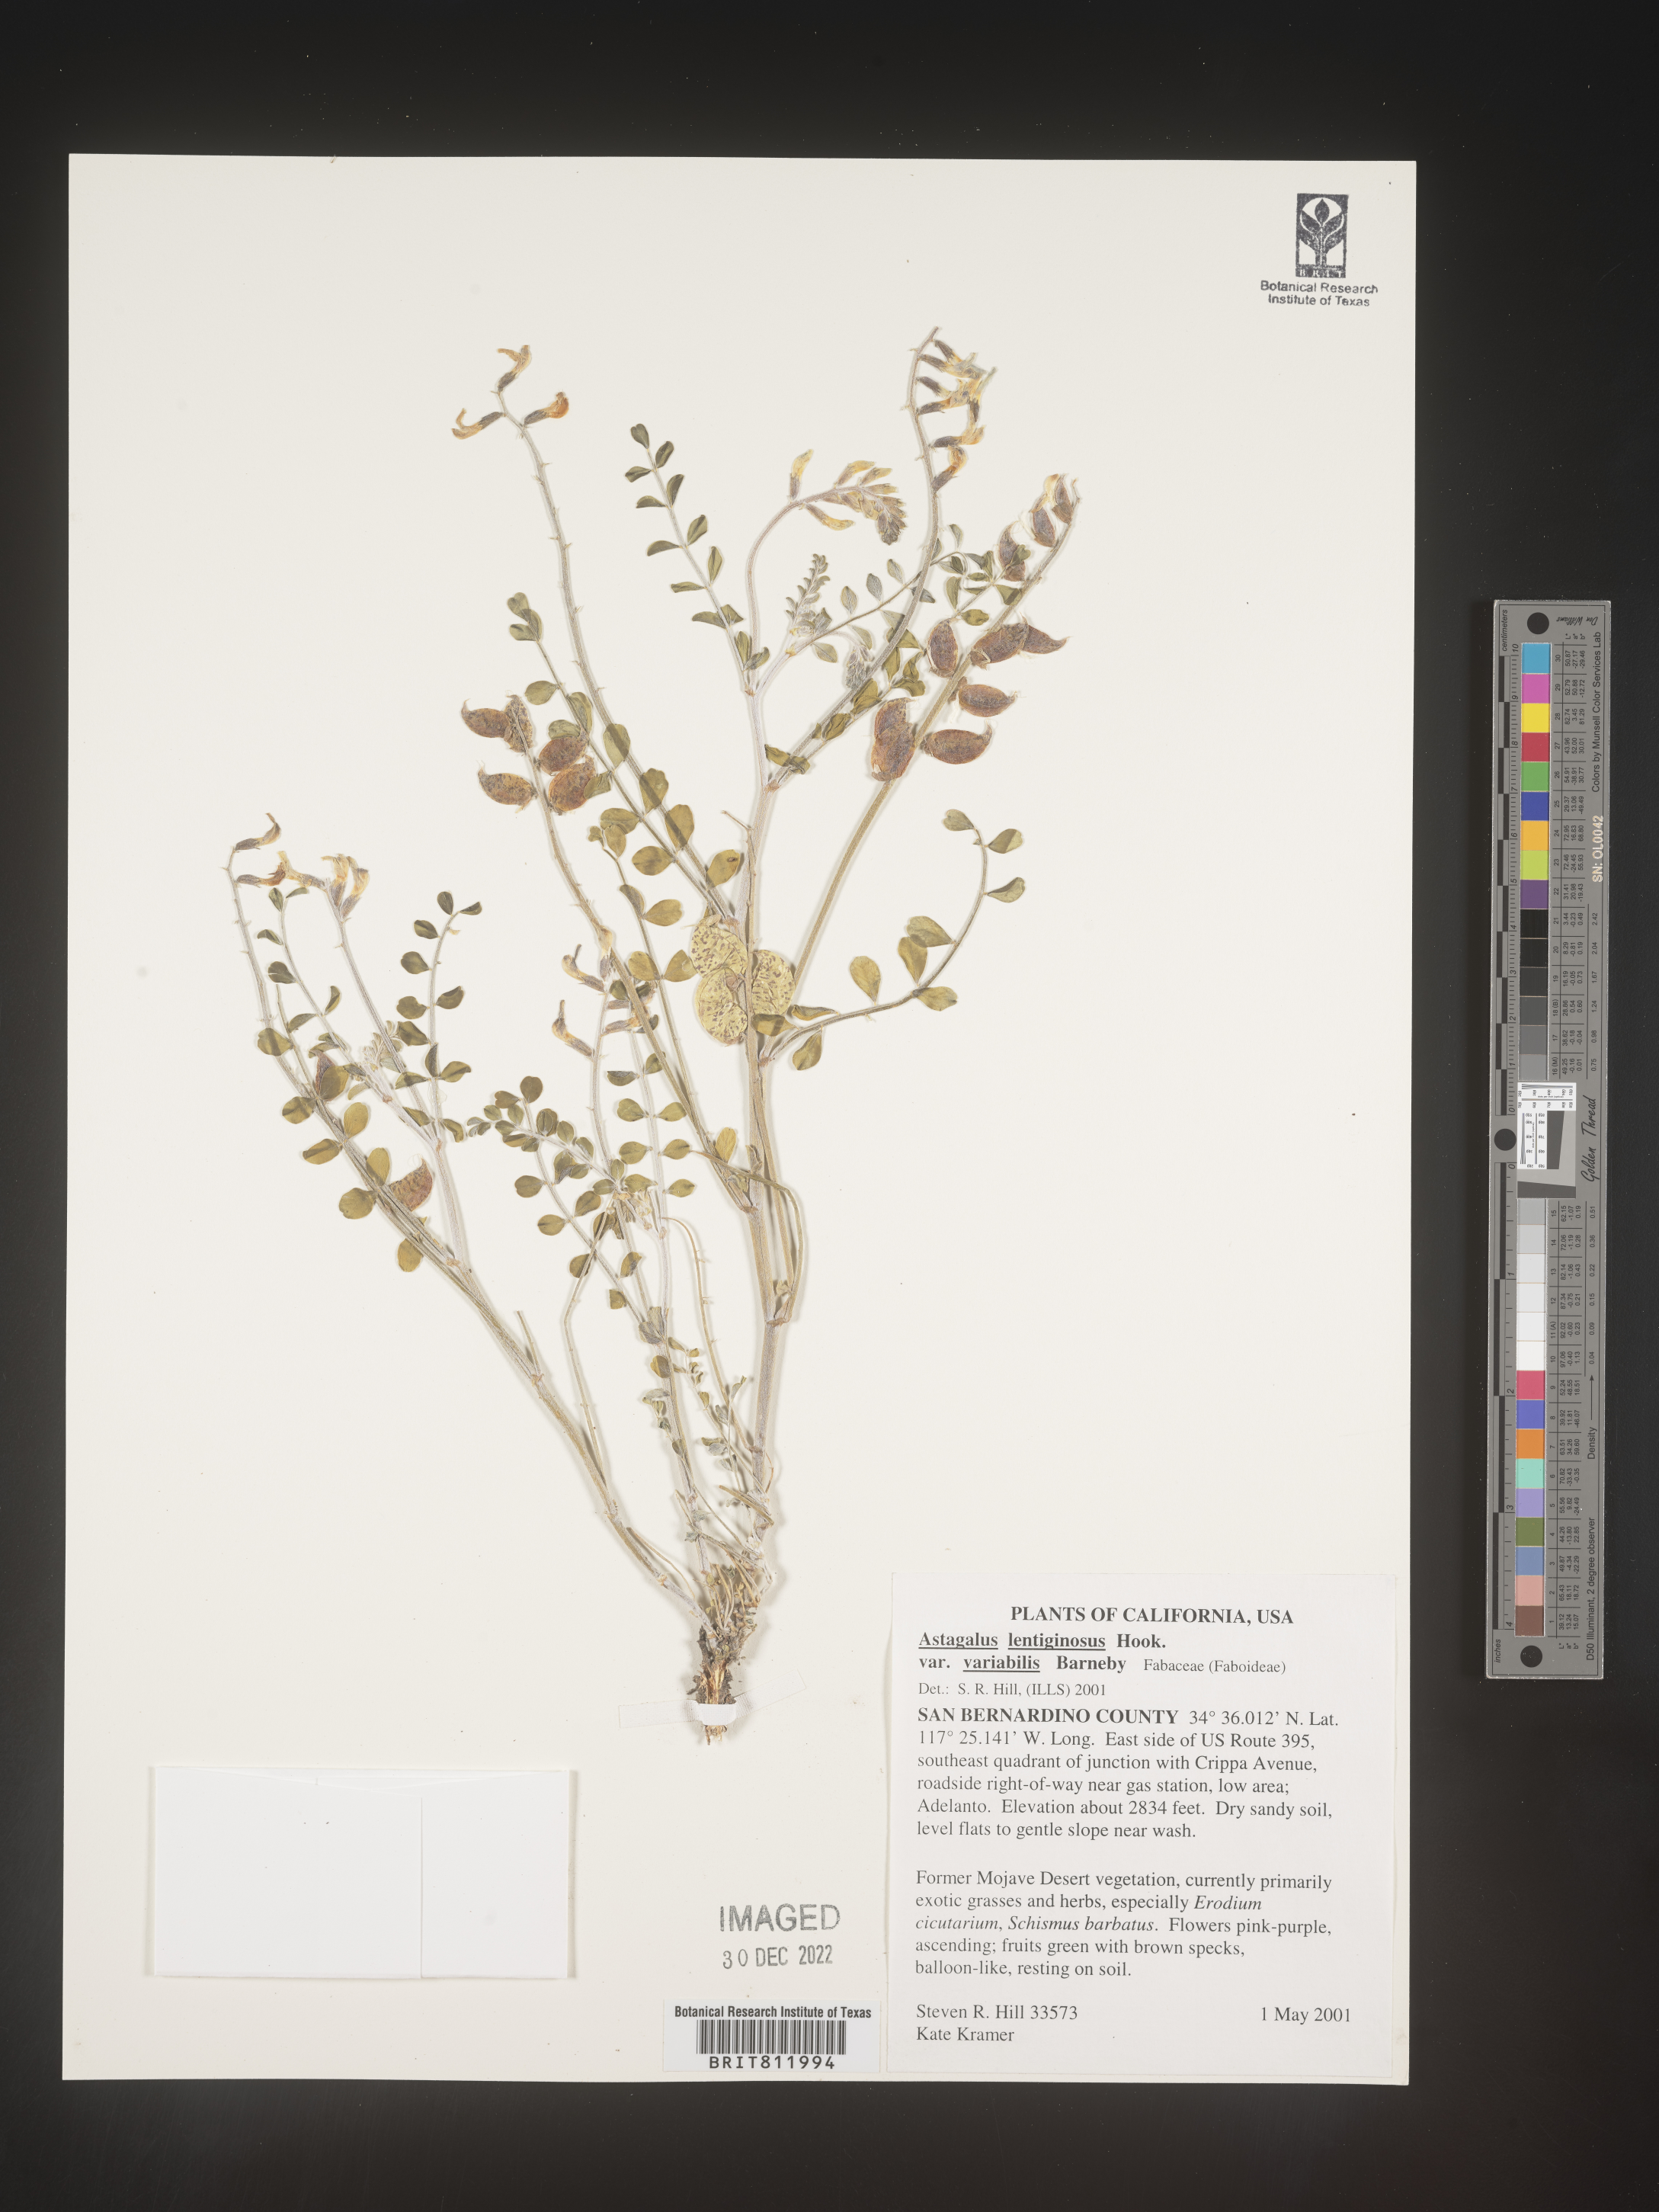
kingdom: Plantae
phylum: Tracheophyta
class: Magnoliopsida
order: Fabales
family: Fabaceae
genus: Astragalus
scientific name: Astragalus lentiginosus
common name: Freckled milkvetch
